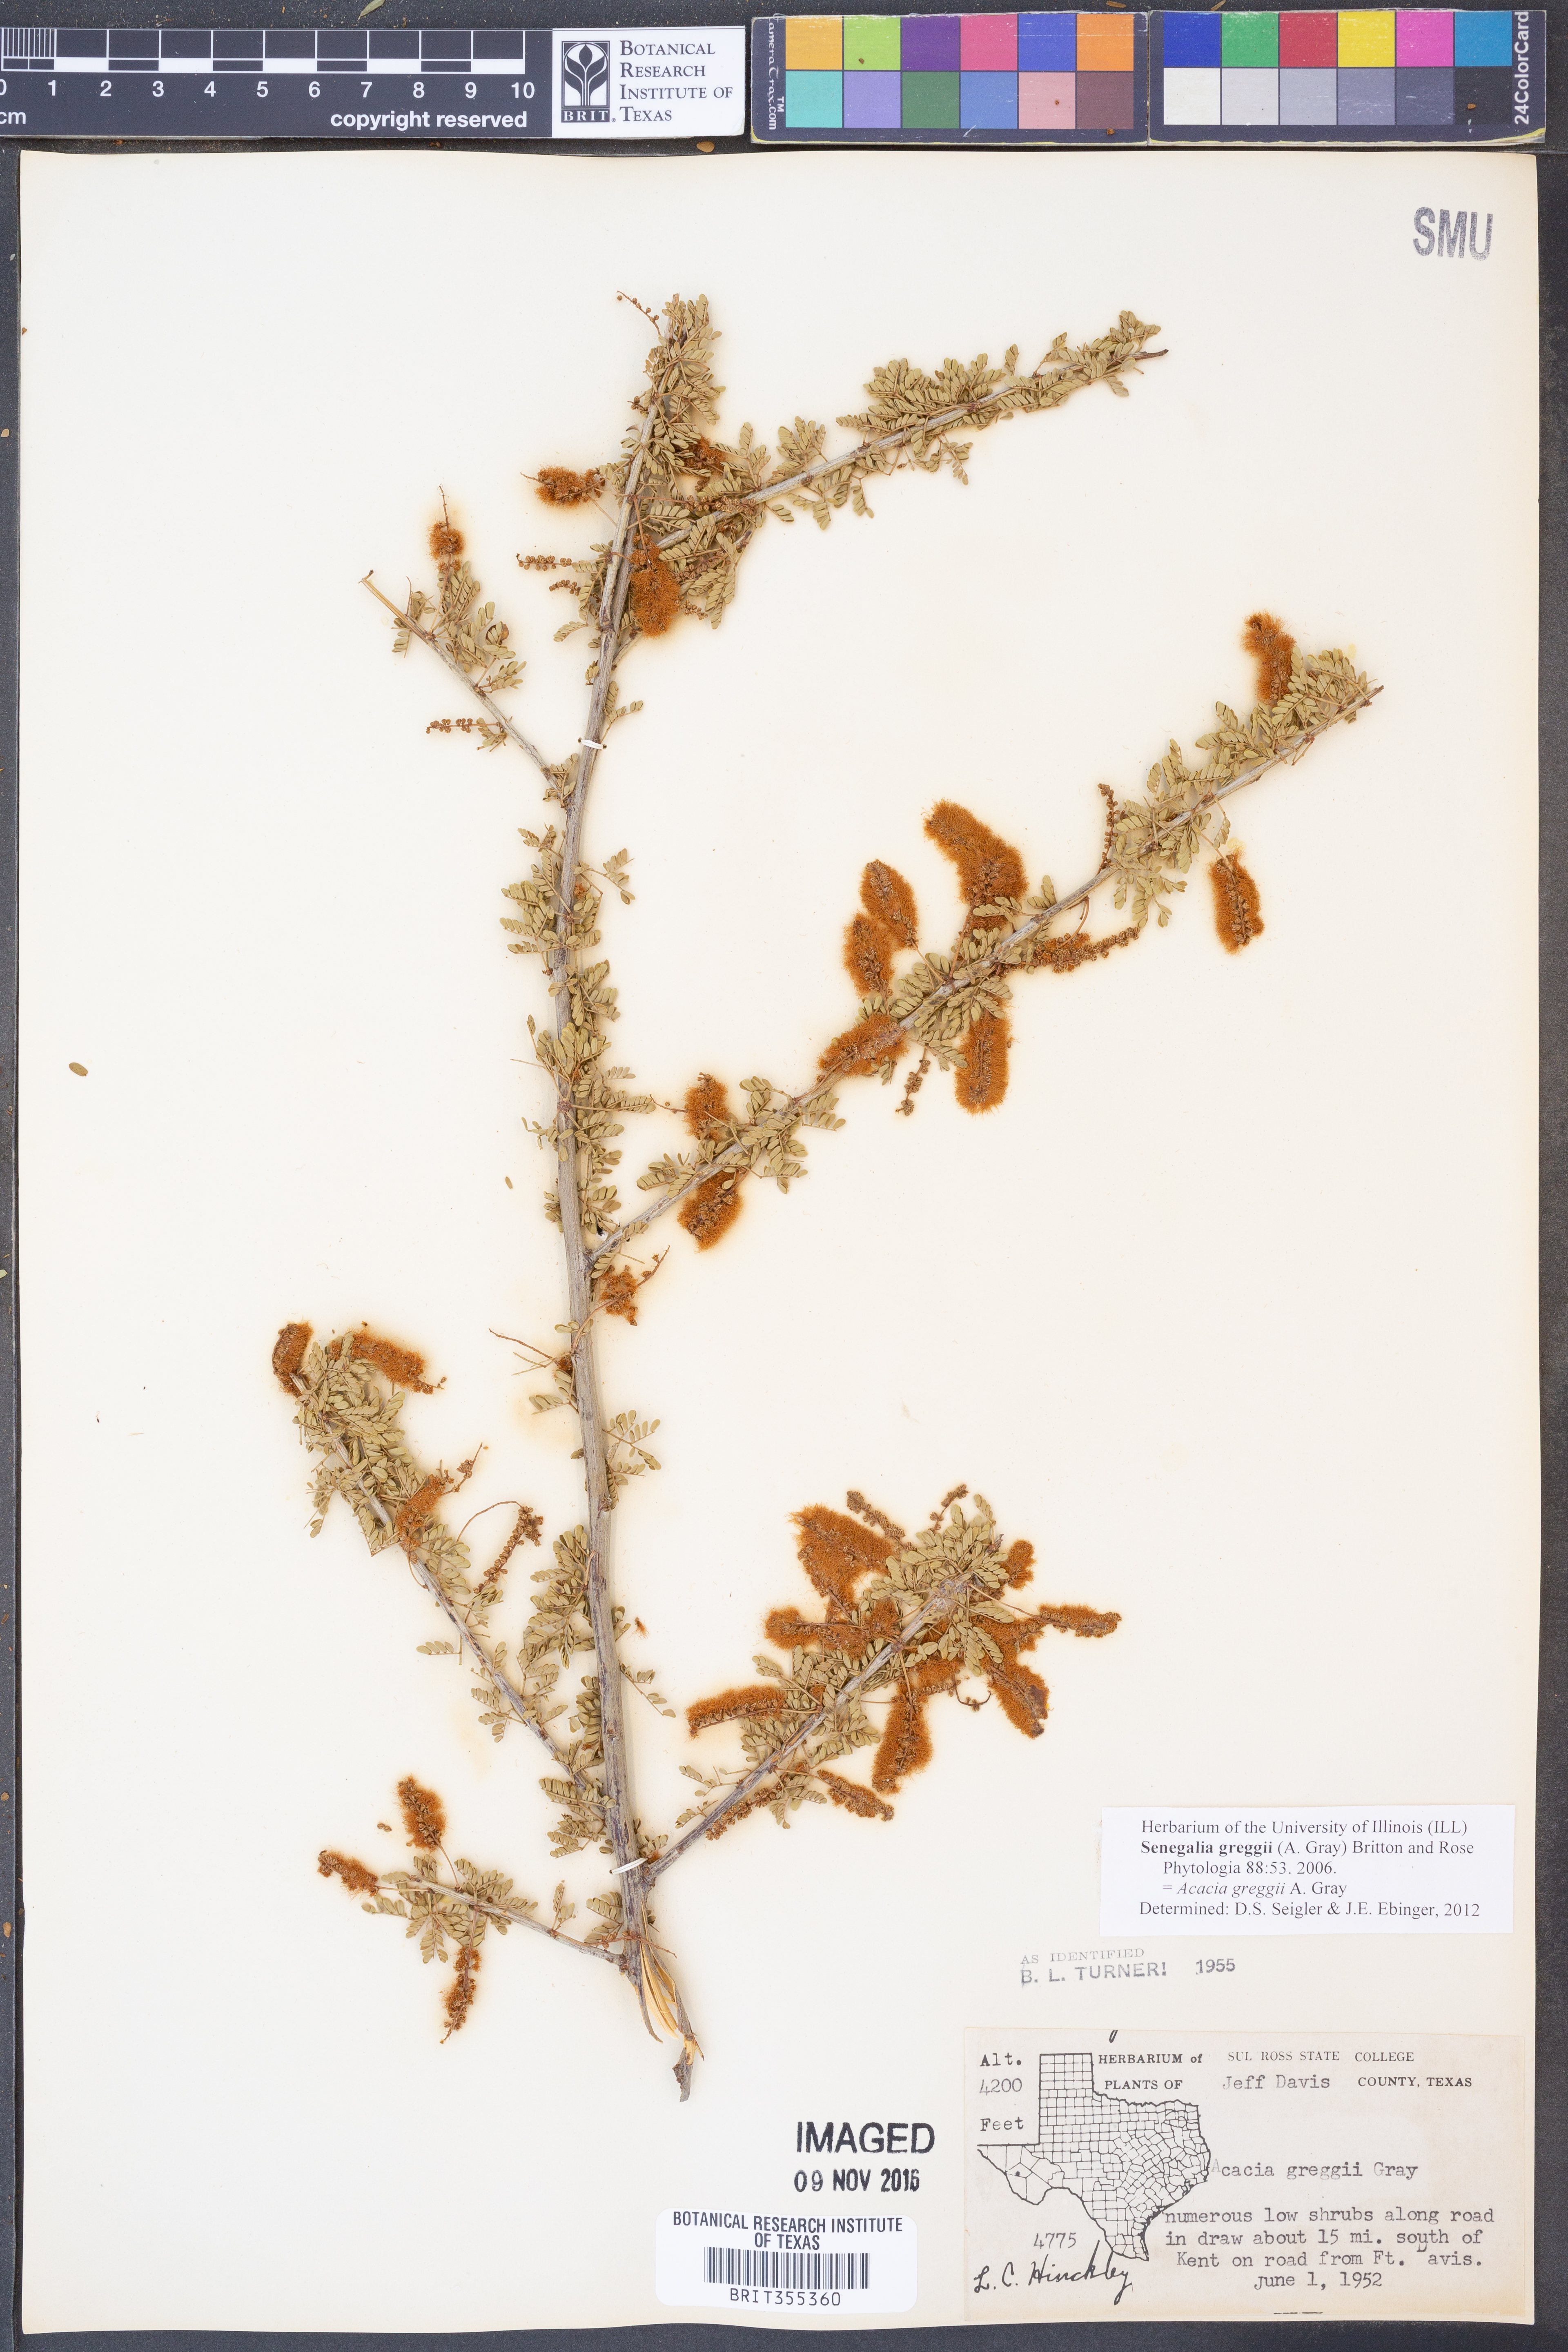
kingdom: Plantae
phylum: Tracheophyta
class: Magnoliopsida
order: Fabales
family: Fabaceae
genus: Senegalia
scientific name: Senegalia greggii
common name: Texas-mimosa
